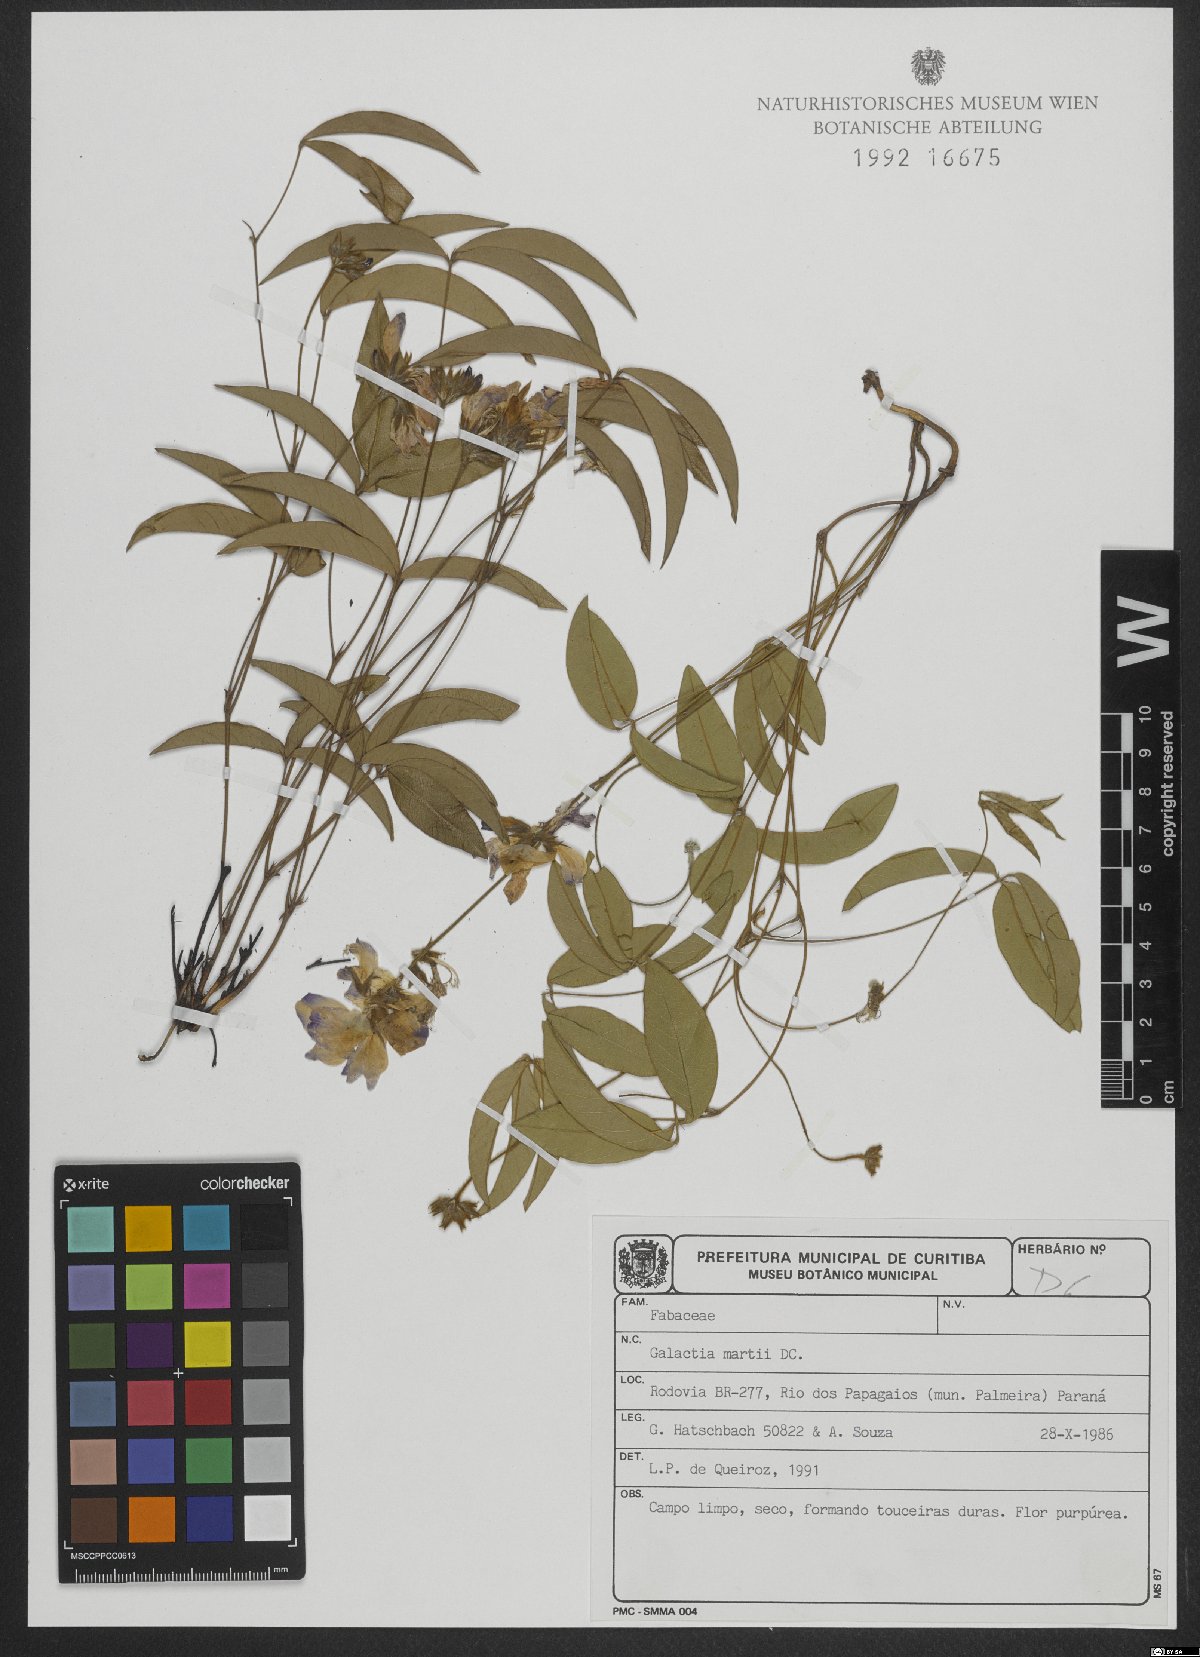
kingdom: Plantae
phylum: Tracheophyta
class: Magnoliopsida
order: Fabales
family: Fabaceae
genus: Betencourtia
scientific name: Betencourtia martii
